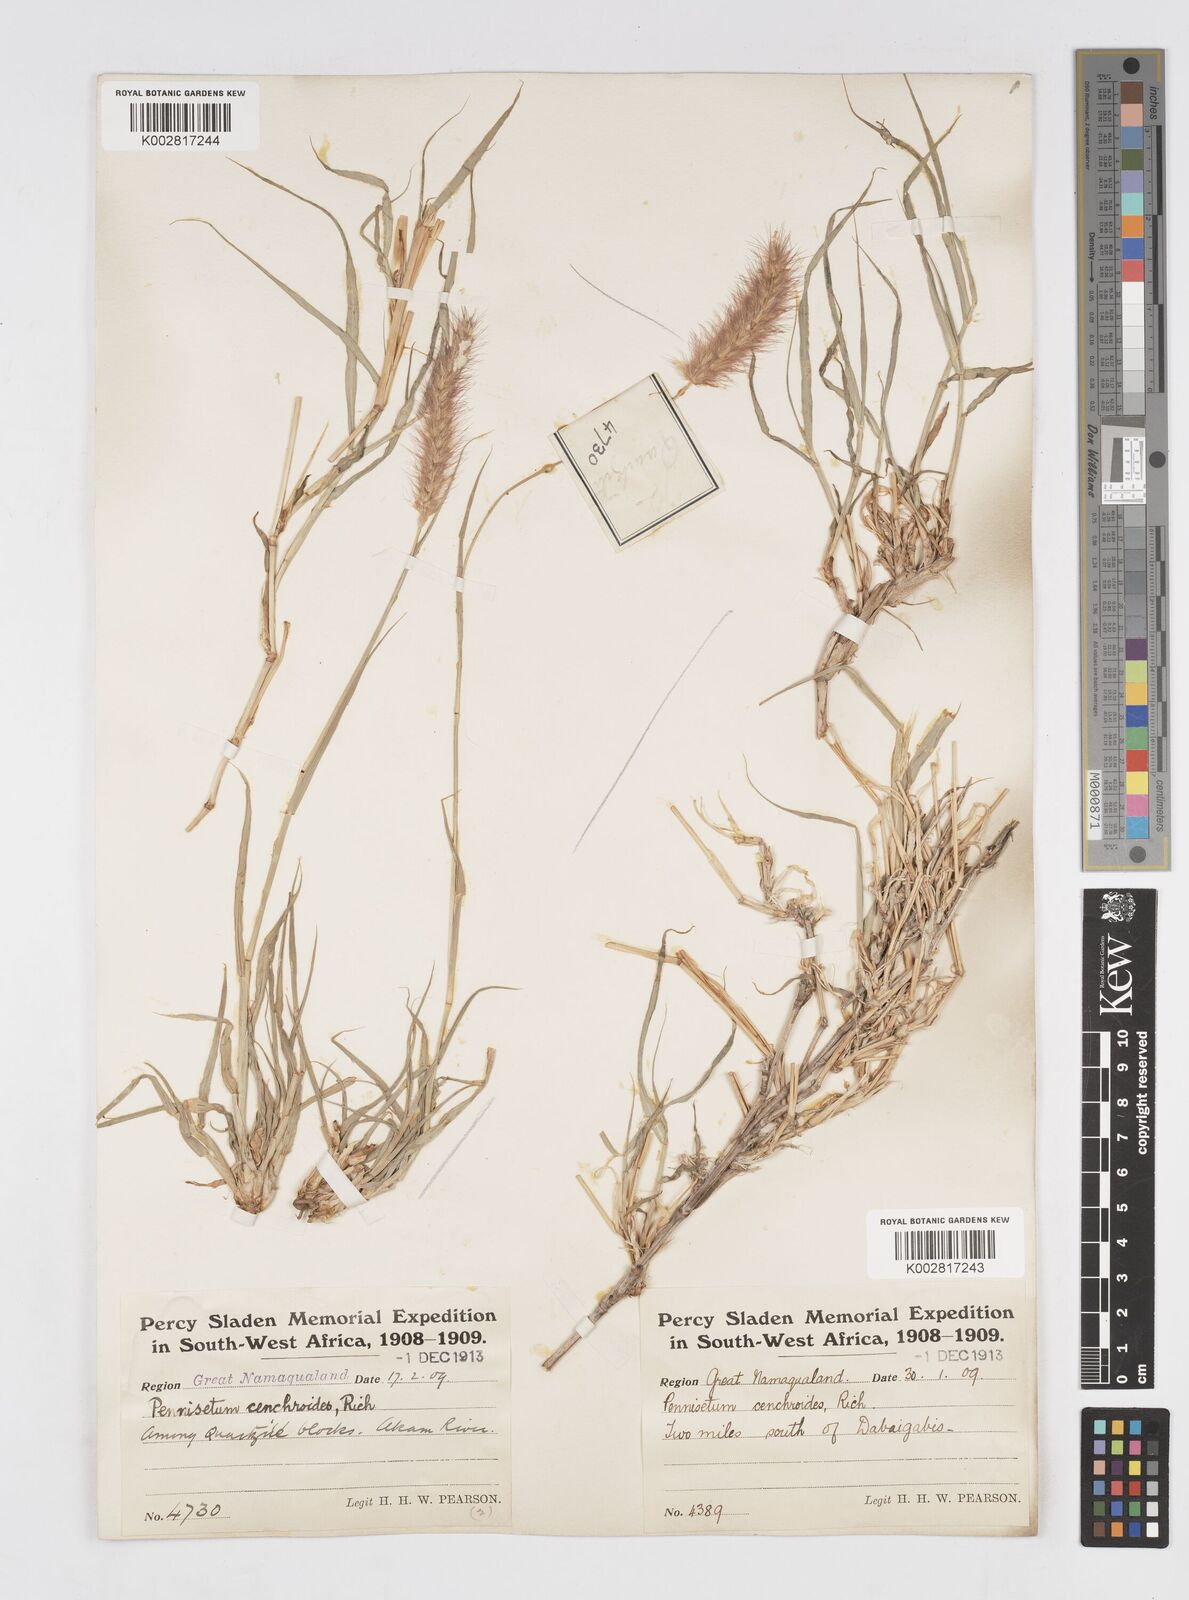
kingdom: Plantae
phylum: Tracheophyta
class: Liliopsida
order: Poales
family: Poaceae
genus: Cenchrus
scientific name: Cenchrus ciliaris
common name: Buffelgrass
